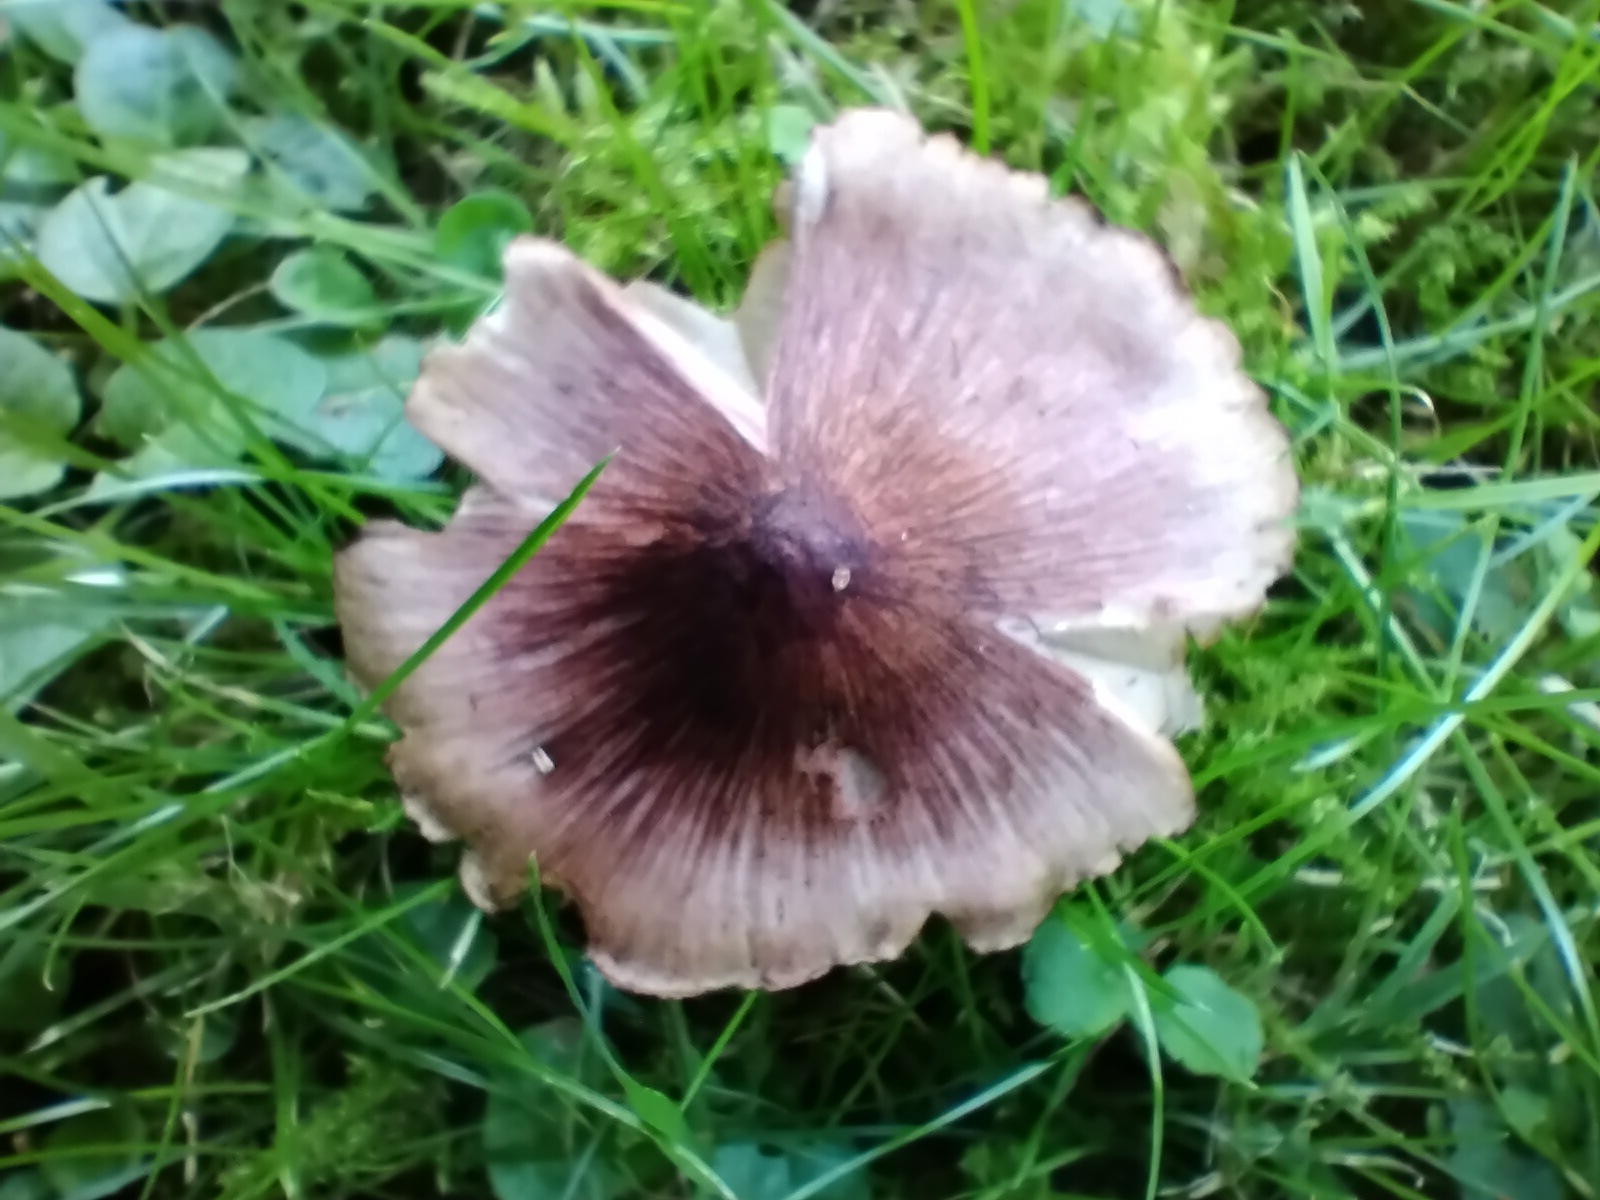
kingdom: Fungi
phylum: Basidiomycota
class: Agaricomycetes
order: Agaricales
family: Inocybaceae
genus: Inosperma
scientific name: Inosperma adaequatum
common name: vinrød trævlhat
